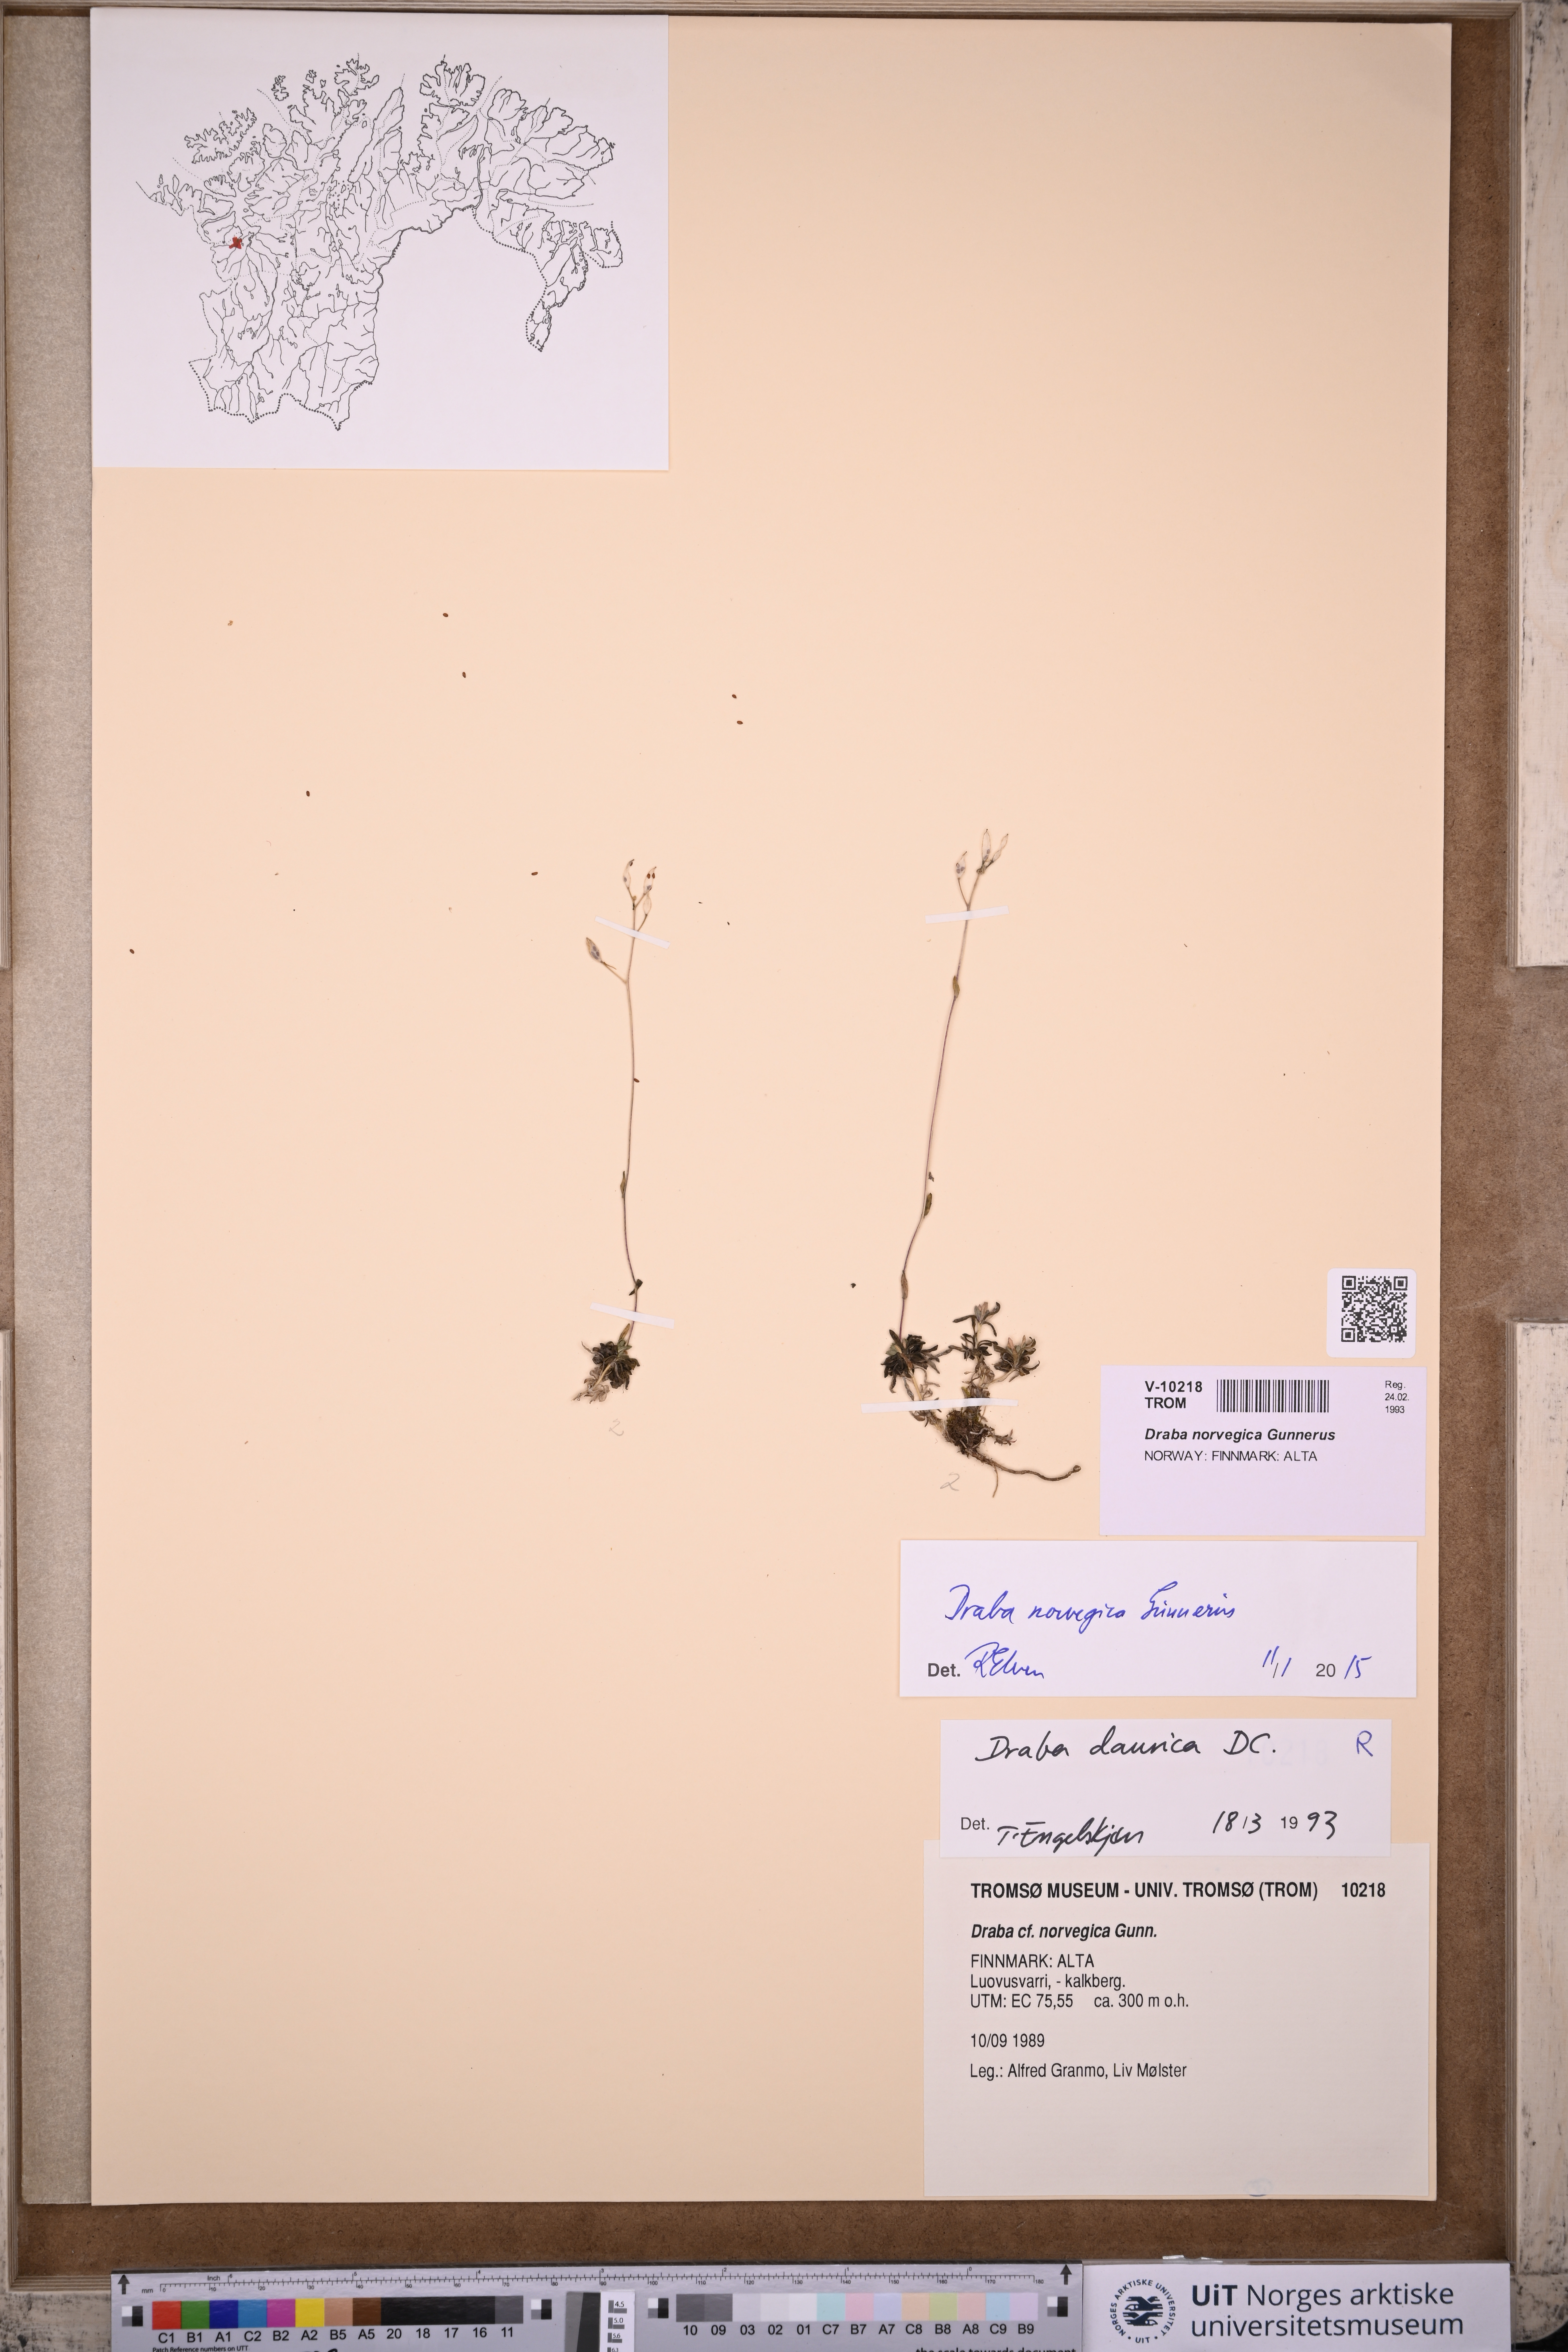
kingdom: Plantae
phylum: Tracheophyta
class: Magnoliopsida
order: Brassicales
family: Brassicaceae
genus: Draba
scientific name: Draba norvegica
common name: Rock whitlowgrass
